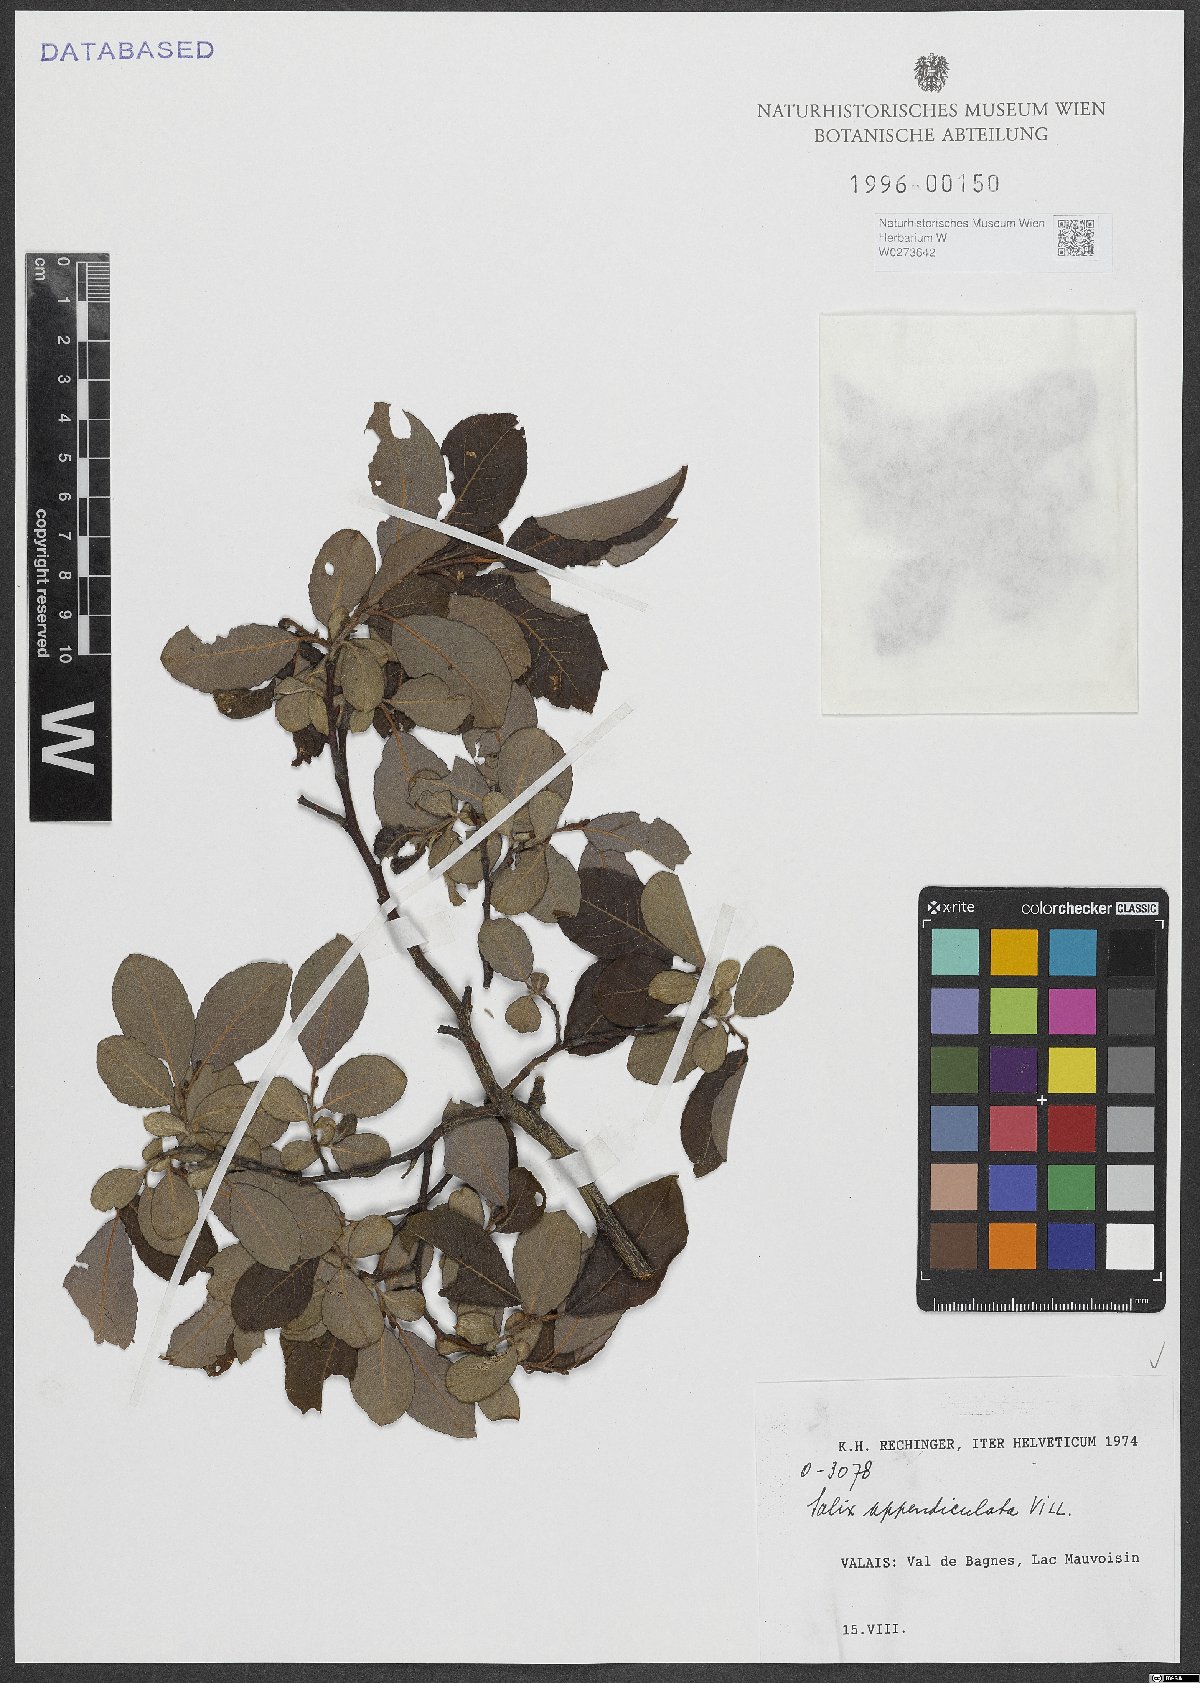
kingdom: Plantae
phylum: Tracheophyta
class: Magnoliopsida
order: Malpighiales
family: Salicaceae
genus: Salix
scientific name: Salix appendiculata
